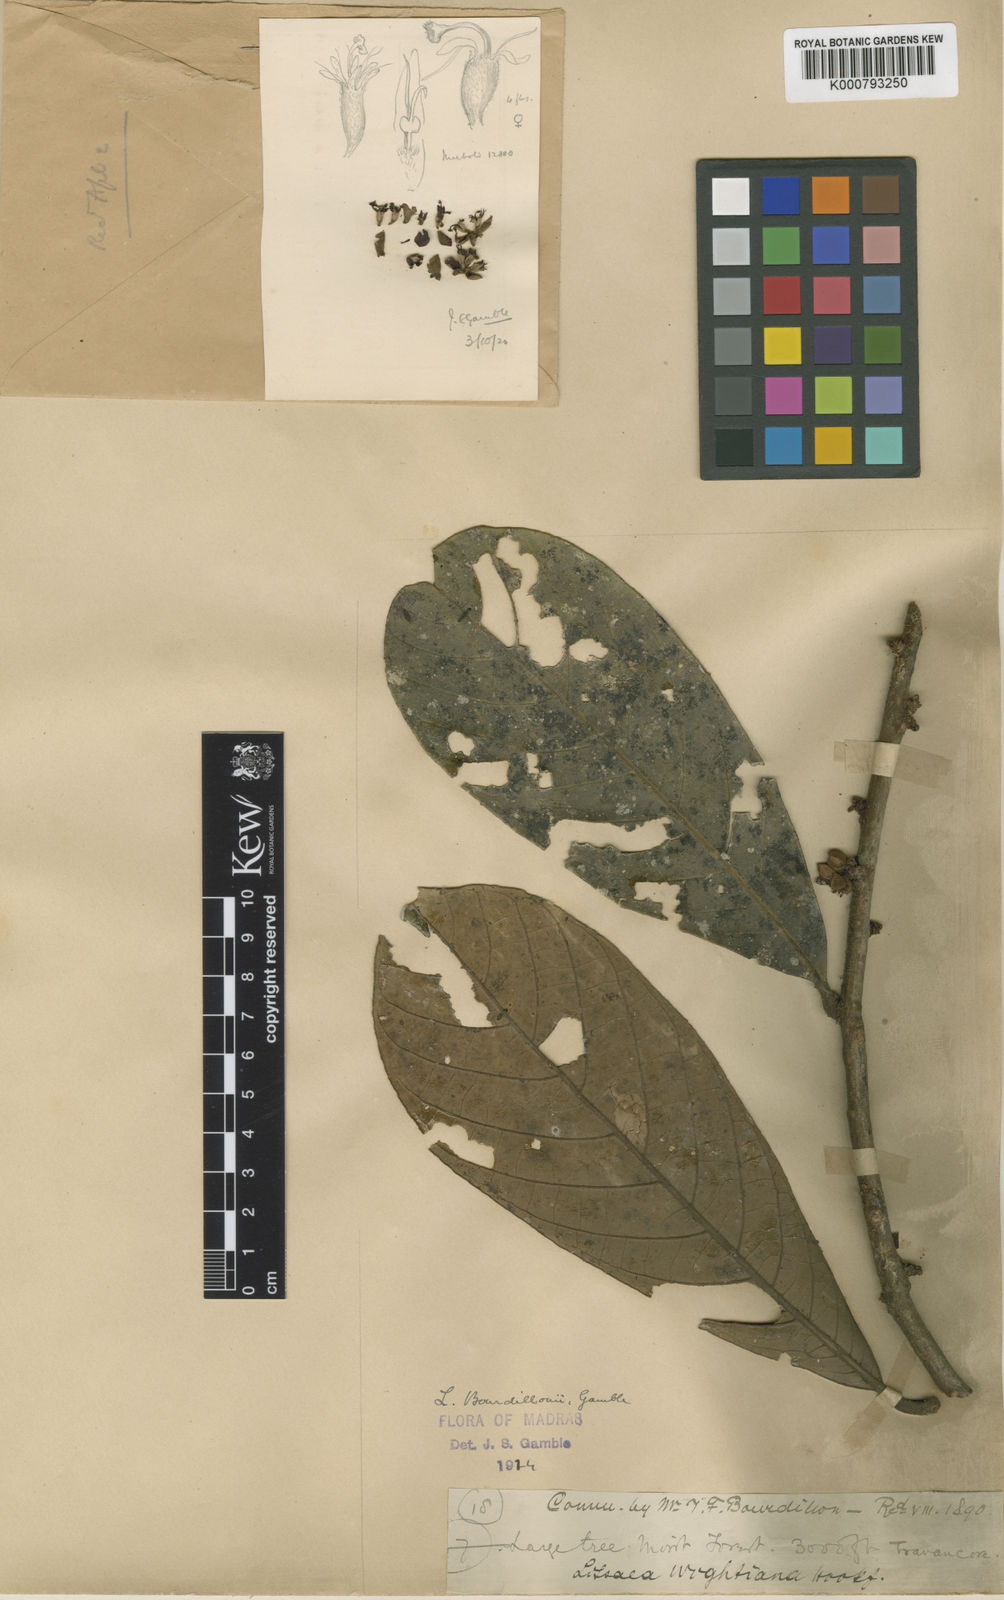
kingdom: Plantae
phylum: Tracheophyta
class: Magnoliopsida
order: Laurales
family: Lauraceae
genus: Litsea
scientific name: Litsea bourdillonii
